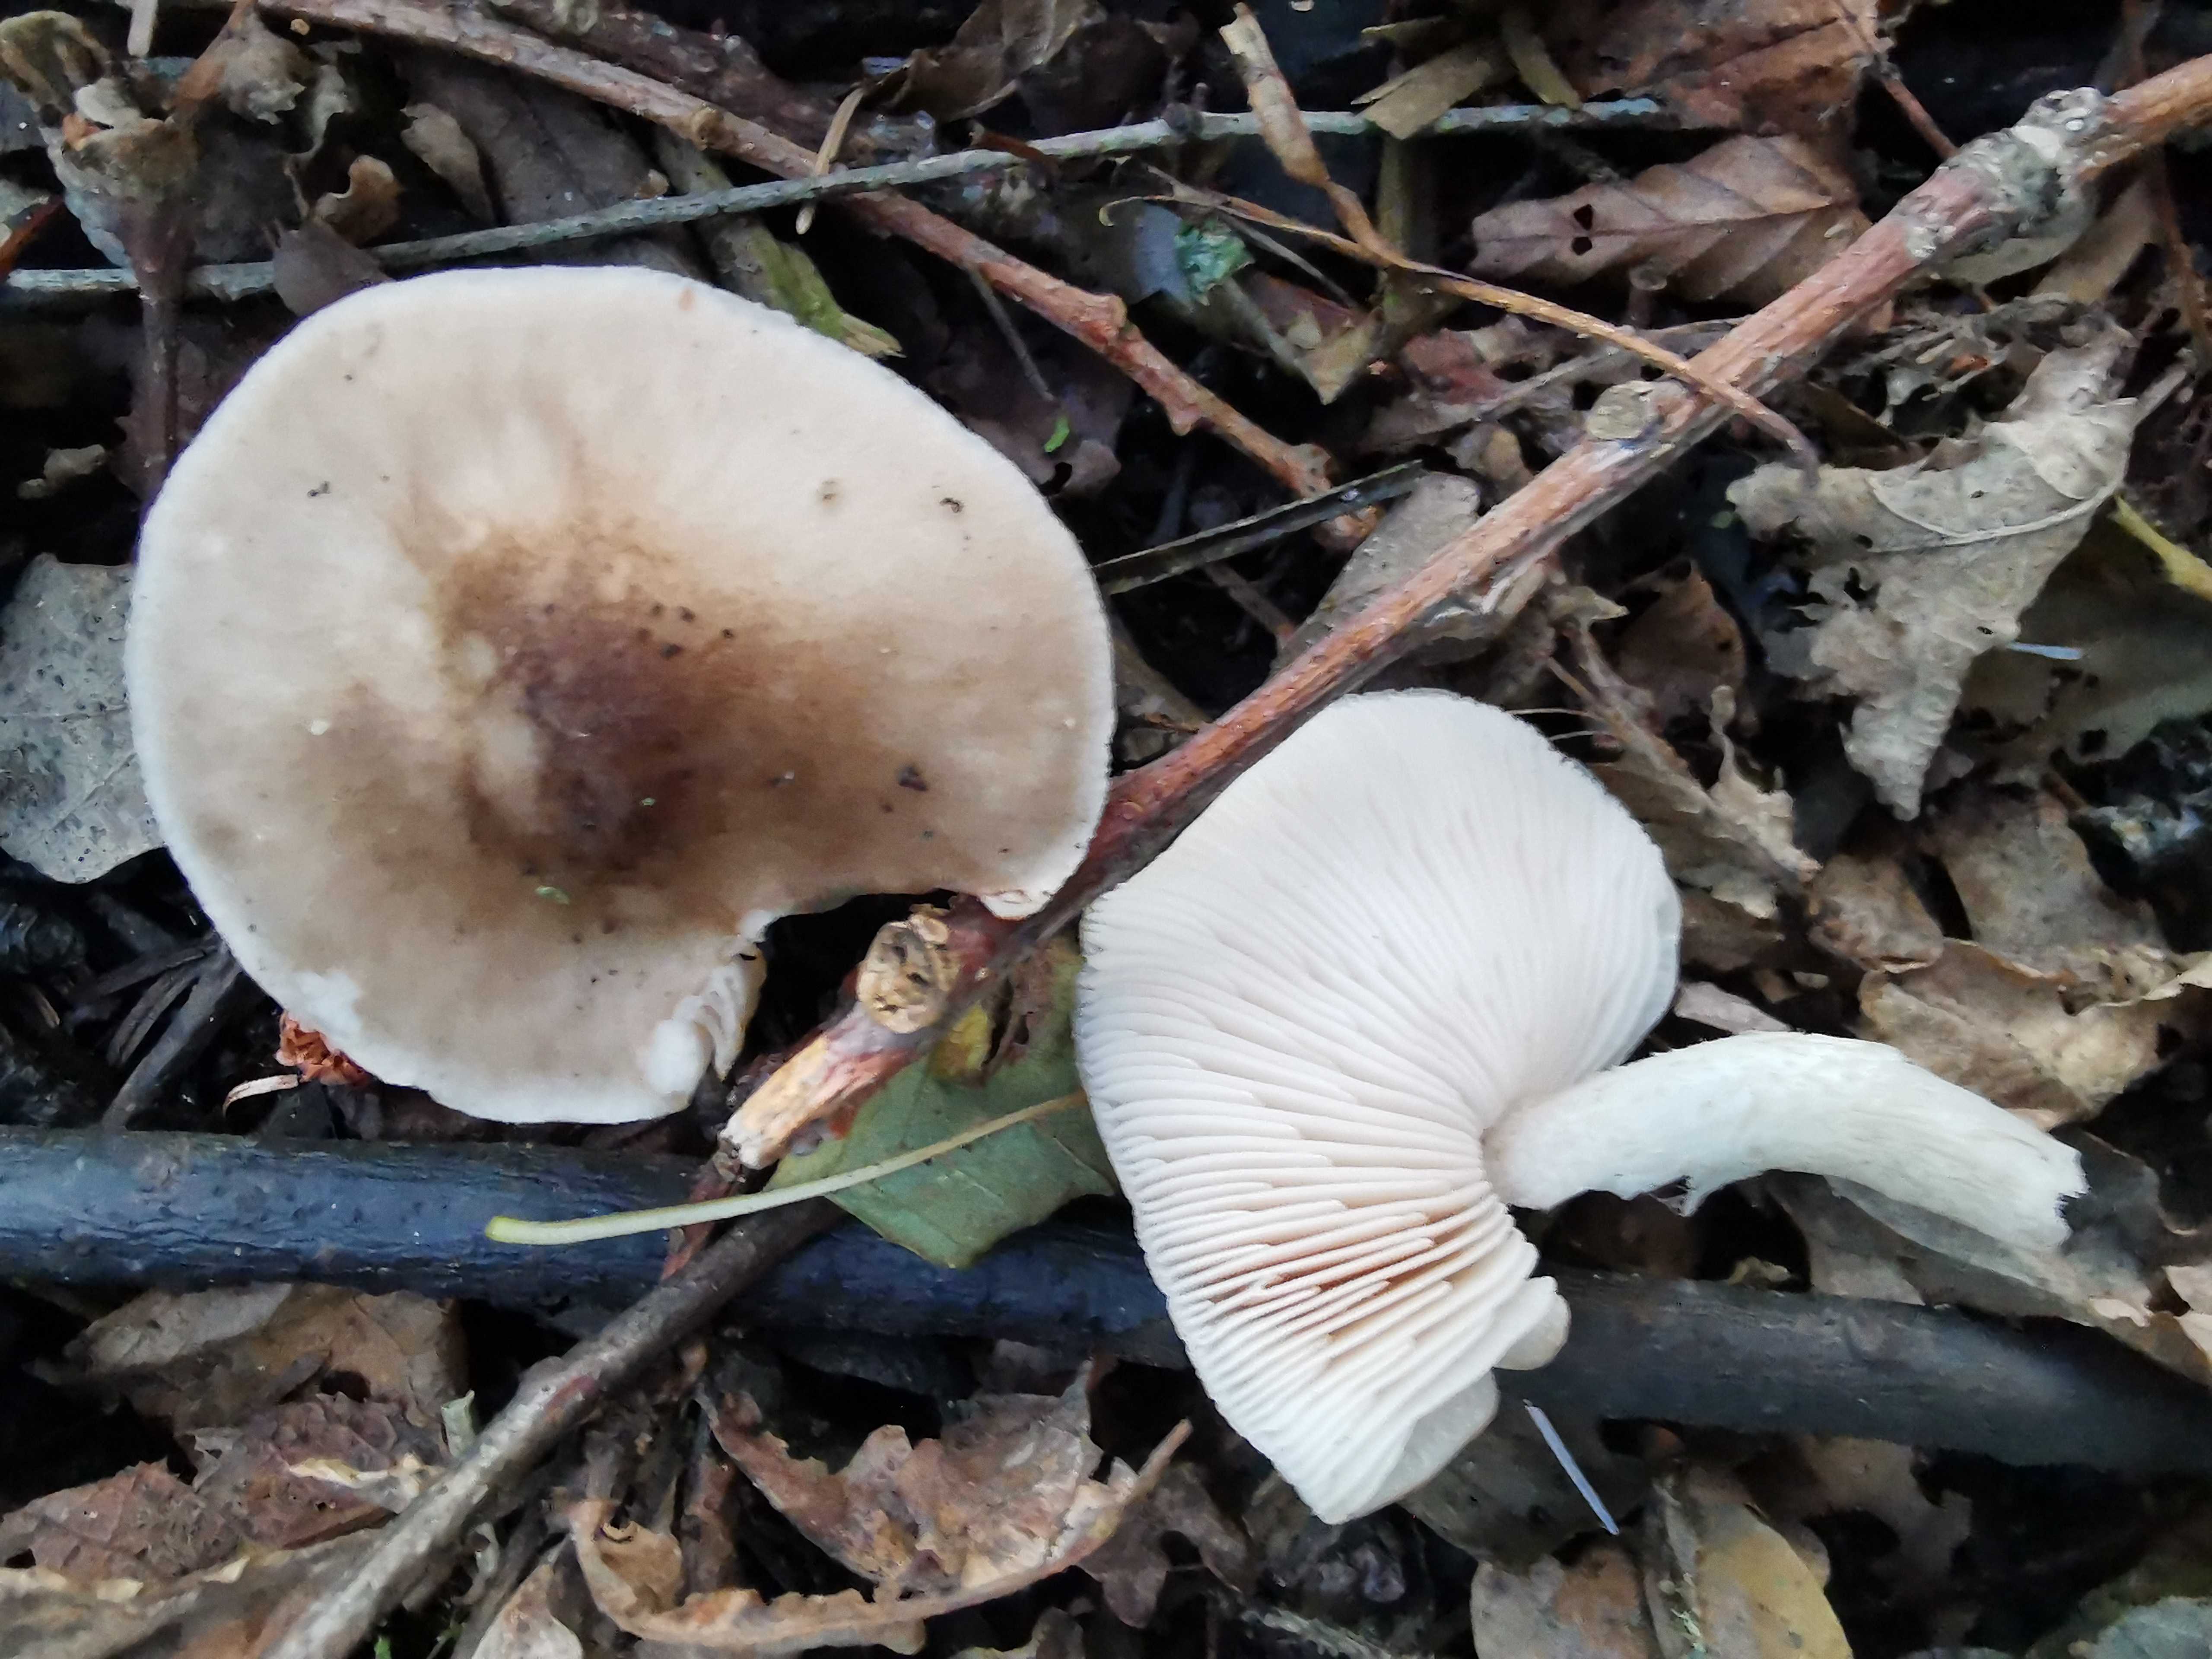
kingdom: Fungi
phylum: Basidiomycota
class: Agaricomycetes
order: Agaricales
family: Pluteaceae
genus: Pluteus
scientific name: Pluteus cervinus
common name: sodfarvet skærmhat
